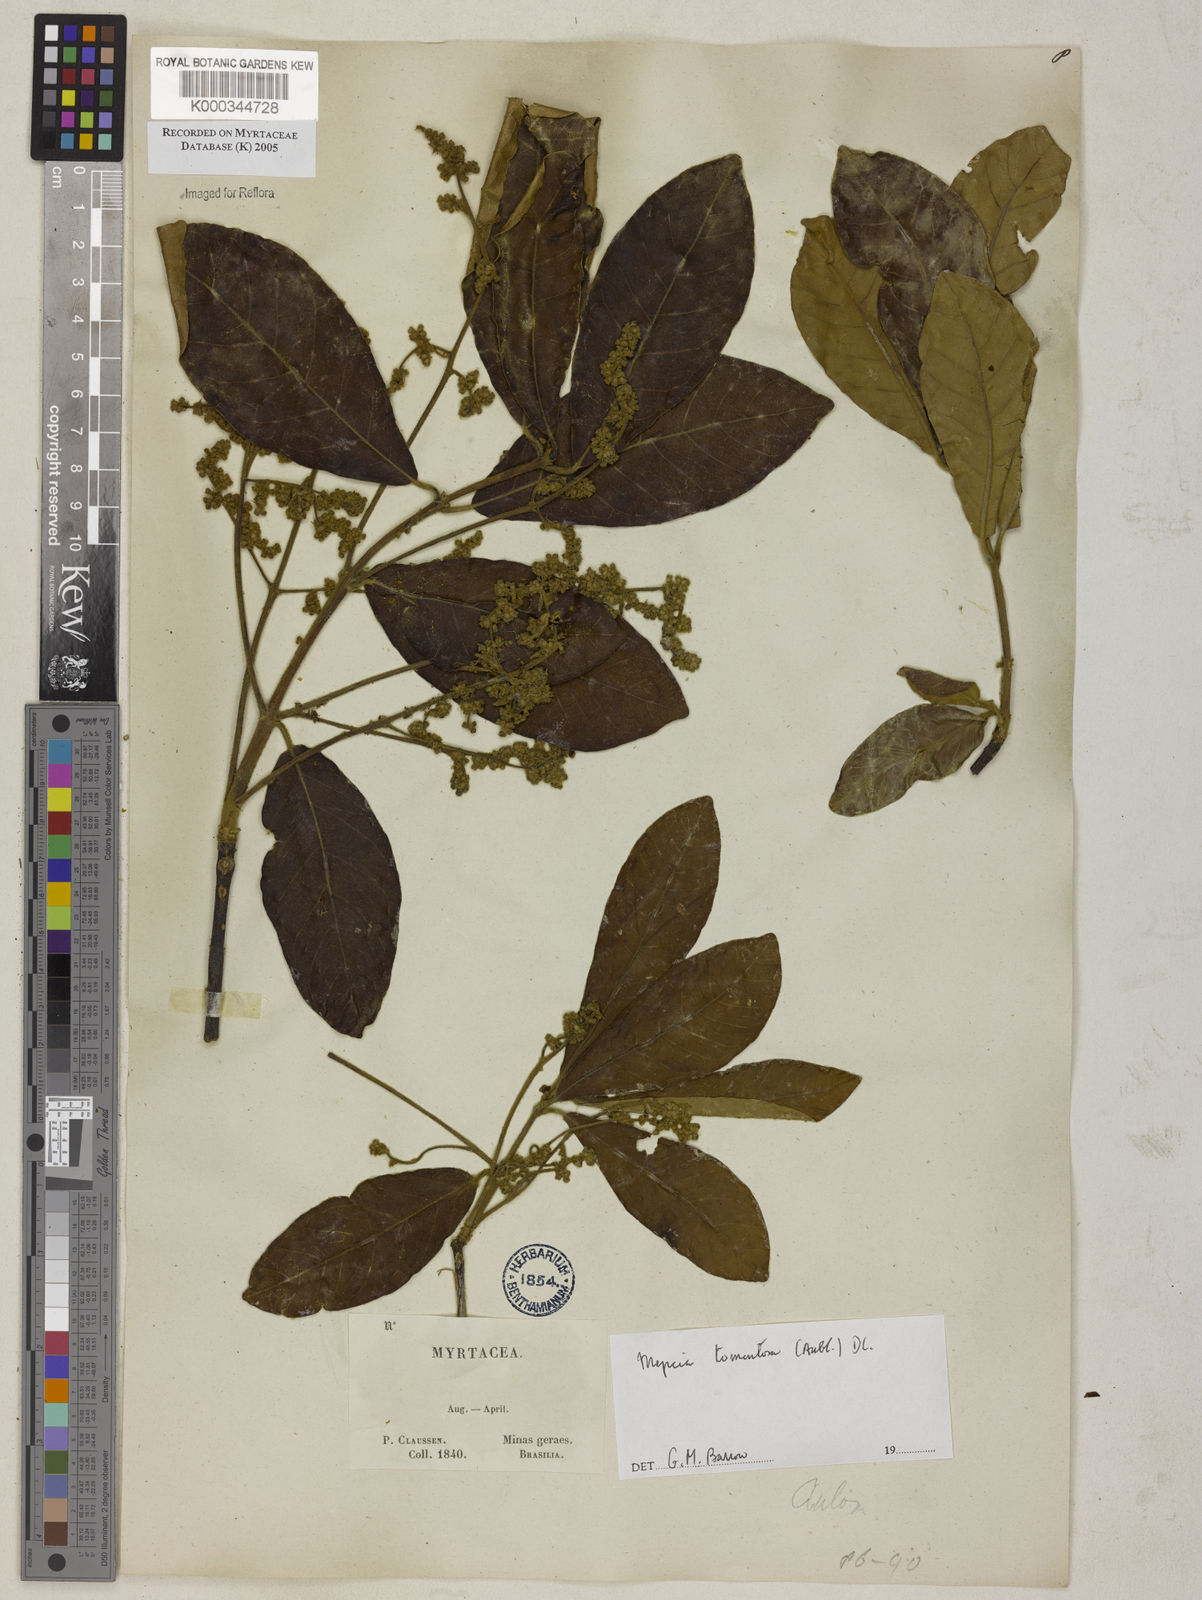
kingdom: Plantae
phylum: Tracheophyta
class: Magnoliopsida
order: Myrtales
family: Myrtaceae
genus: Myrcia
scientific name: Myrcia tomentosa
